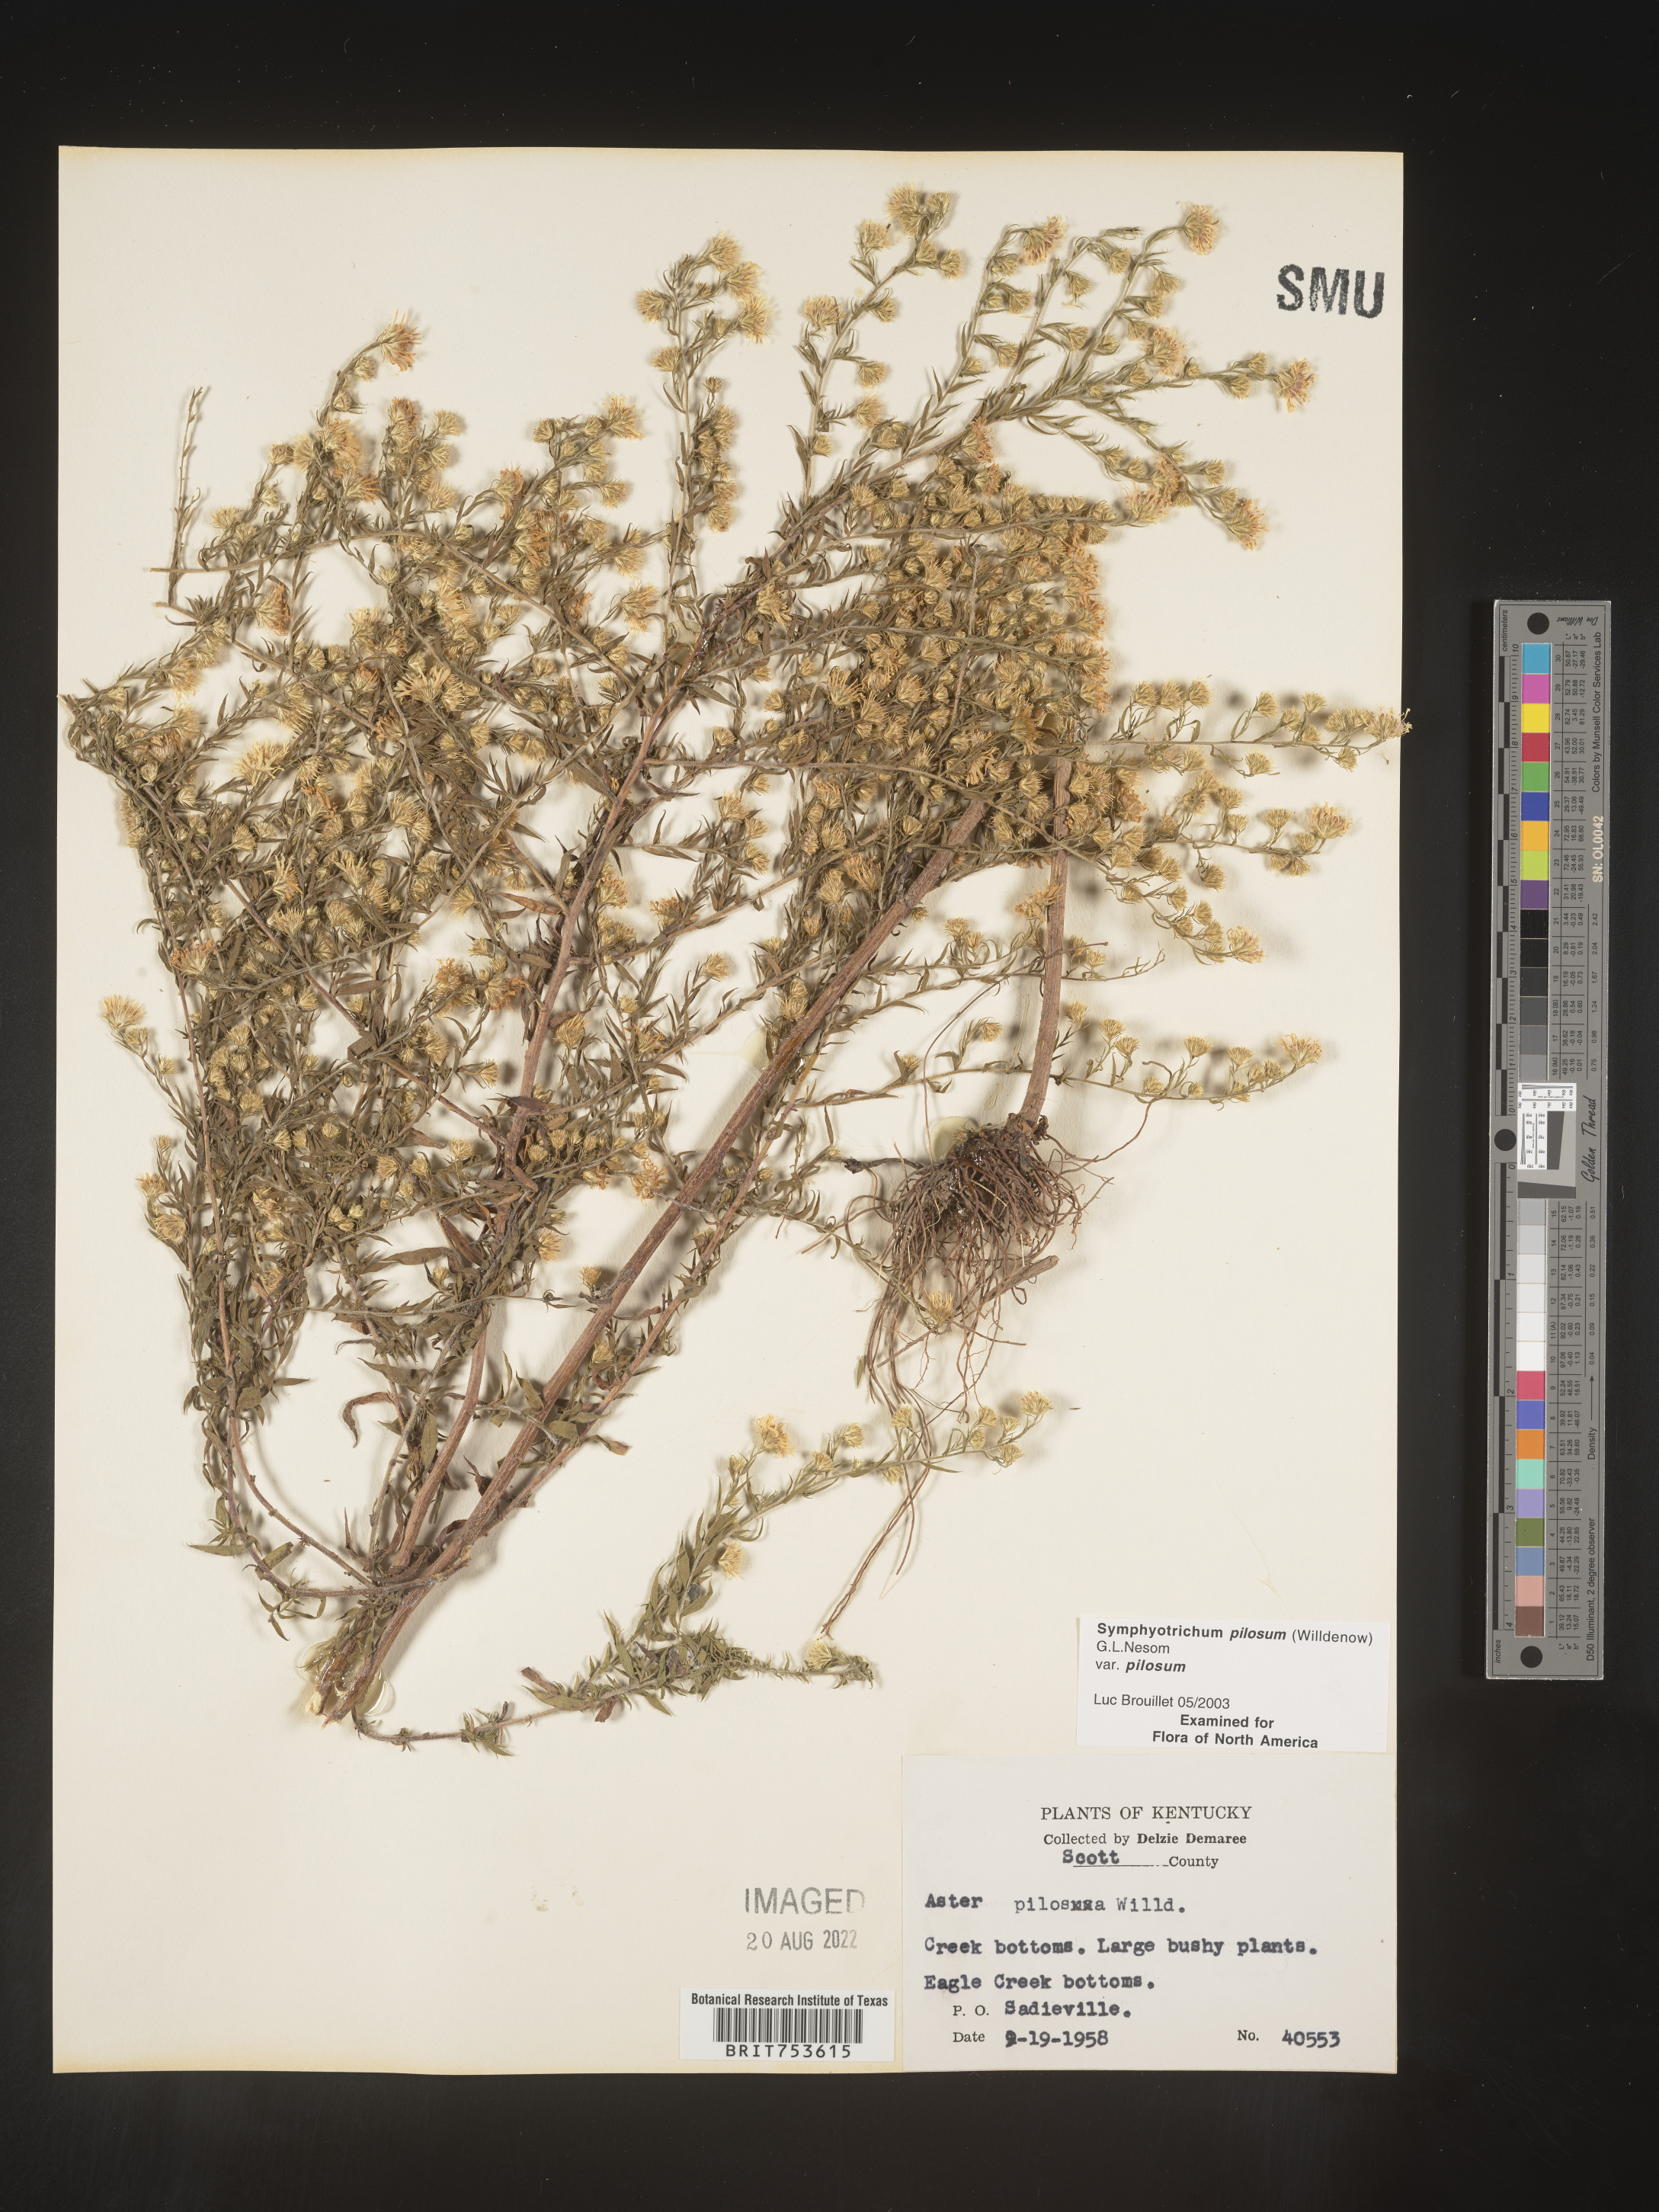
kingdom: Plantae
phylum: Tracheophyta
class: Magnoliopsida
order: Asterales
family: Asteraceae
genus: Symphyotrichum
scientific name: Symphyotrichum pilosum
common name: Awl aster
